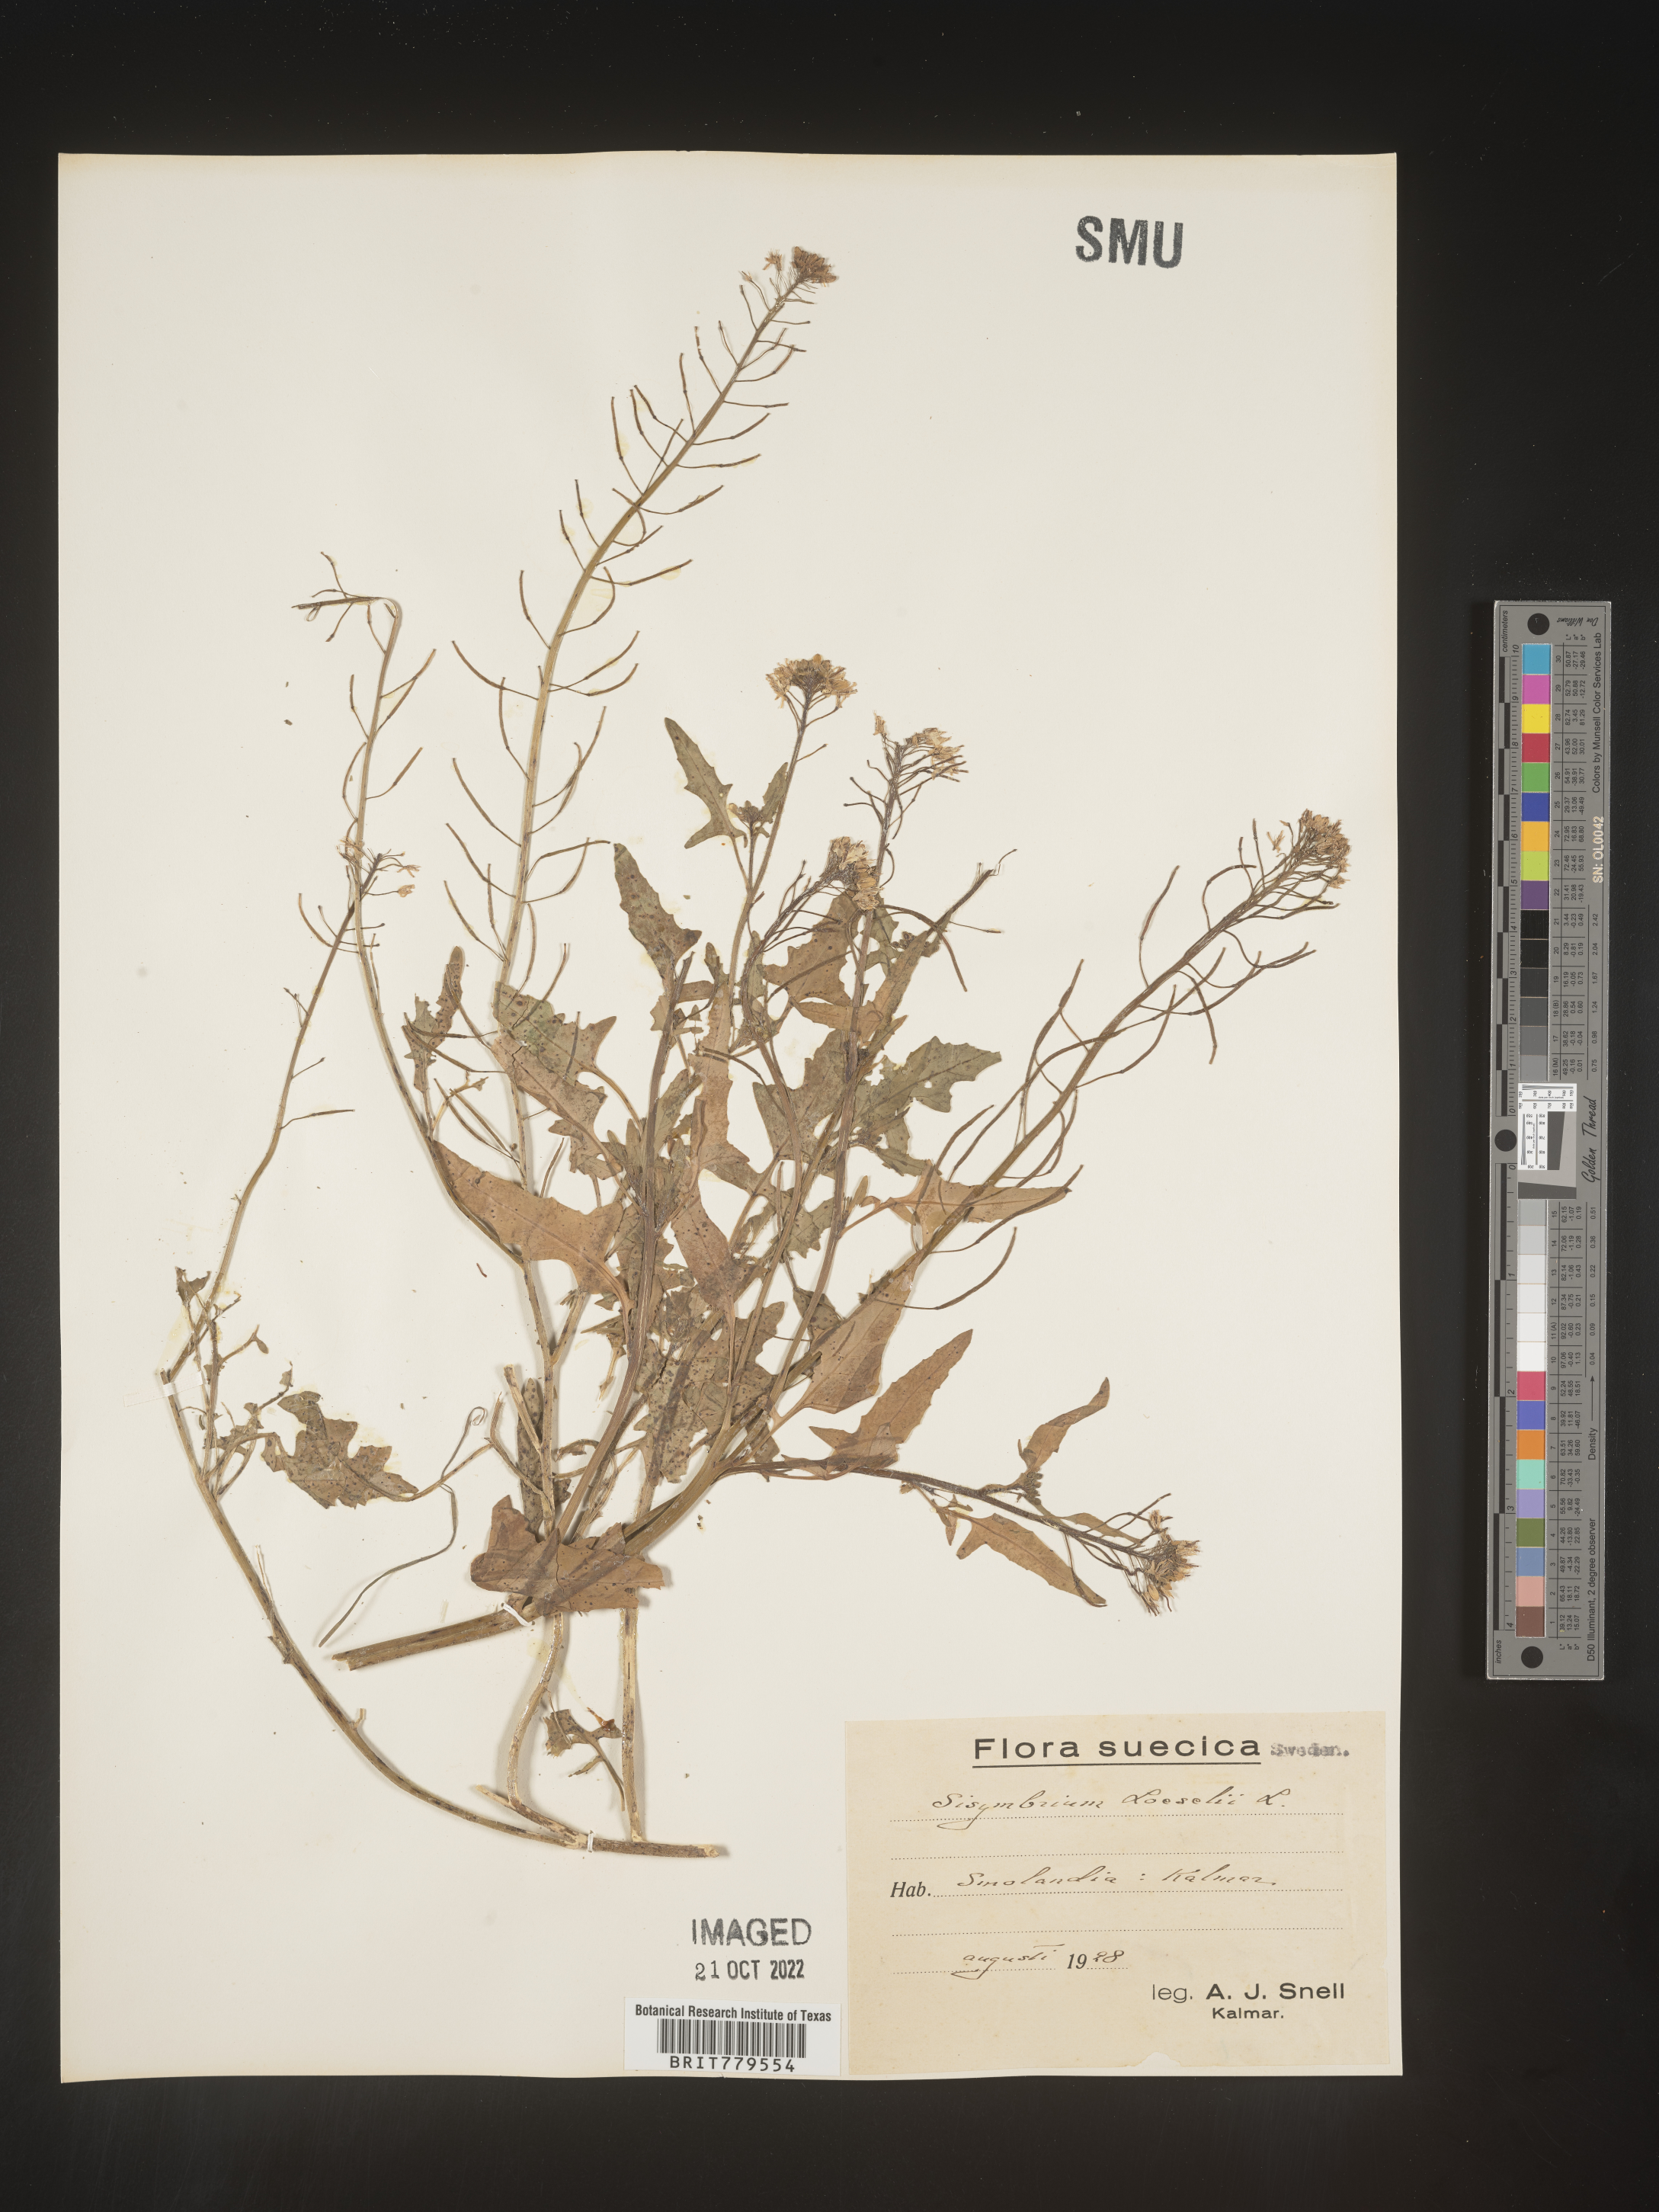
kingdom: Plantae
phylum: Tracheophyta
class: Magnoliopsida
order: Brassicales
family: Brassicaceae
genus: Sisymbrium
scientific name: Sisymbrium
